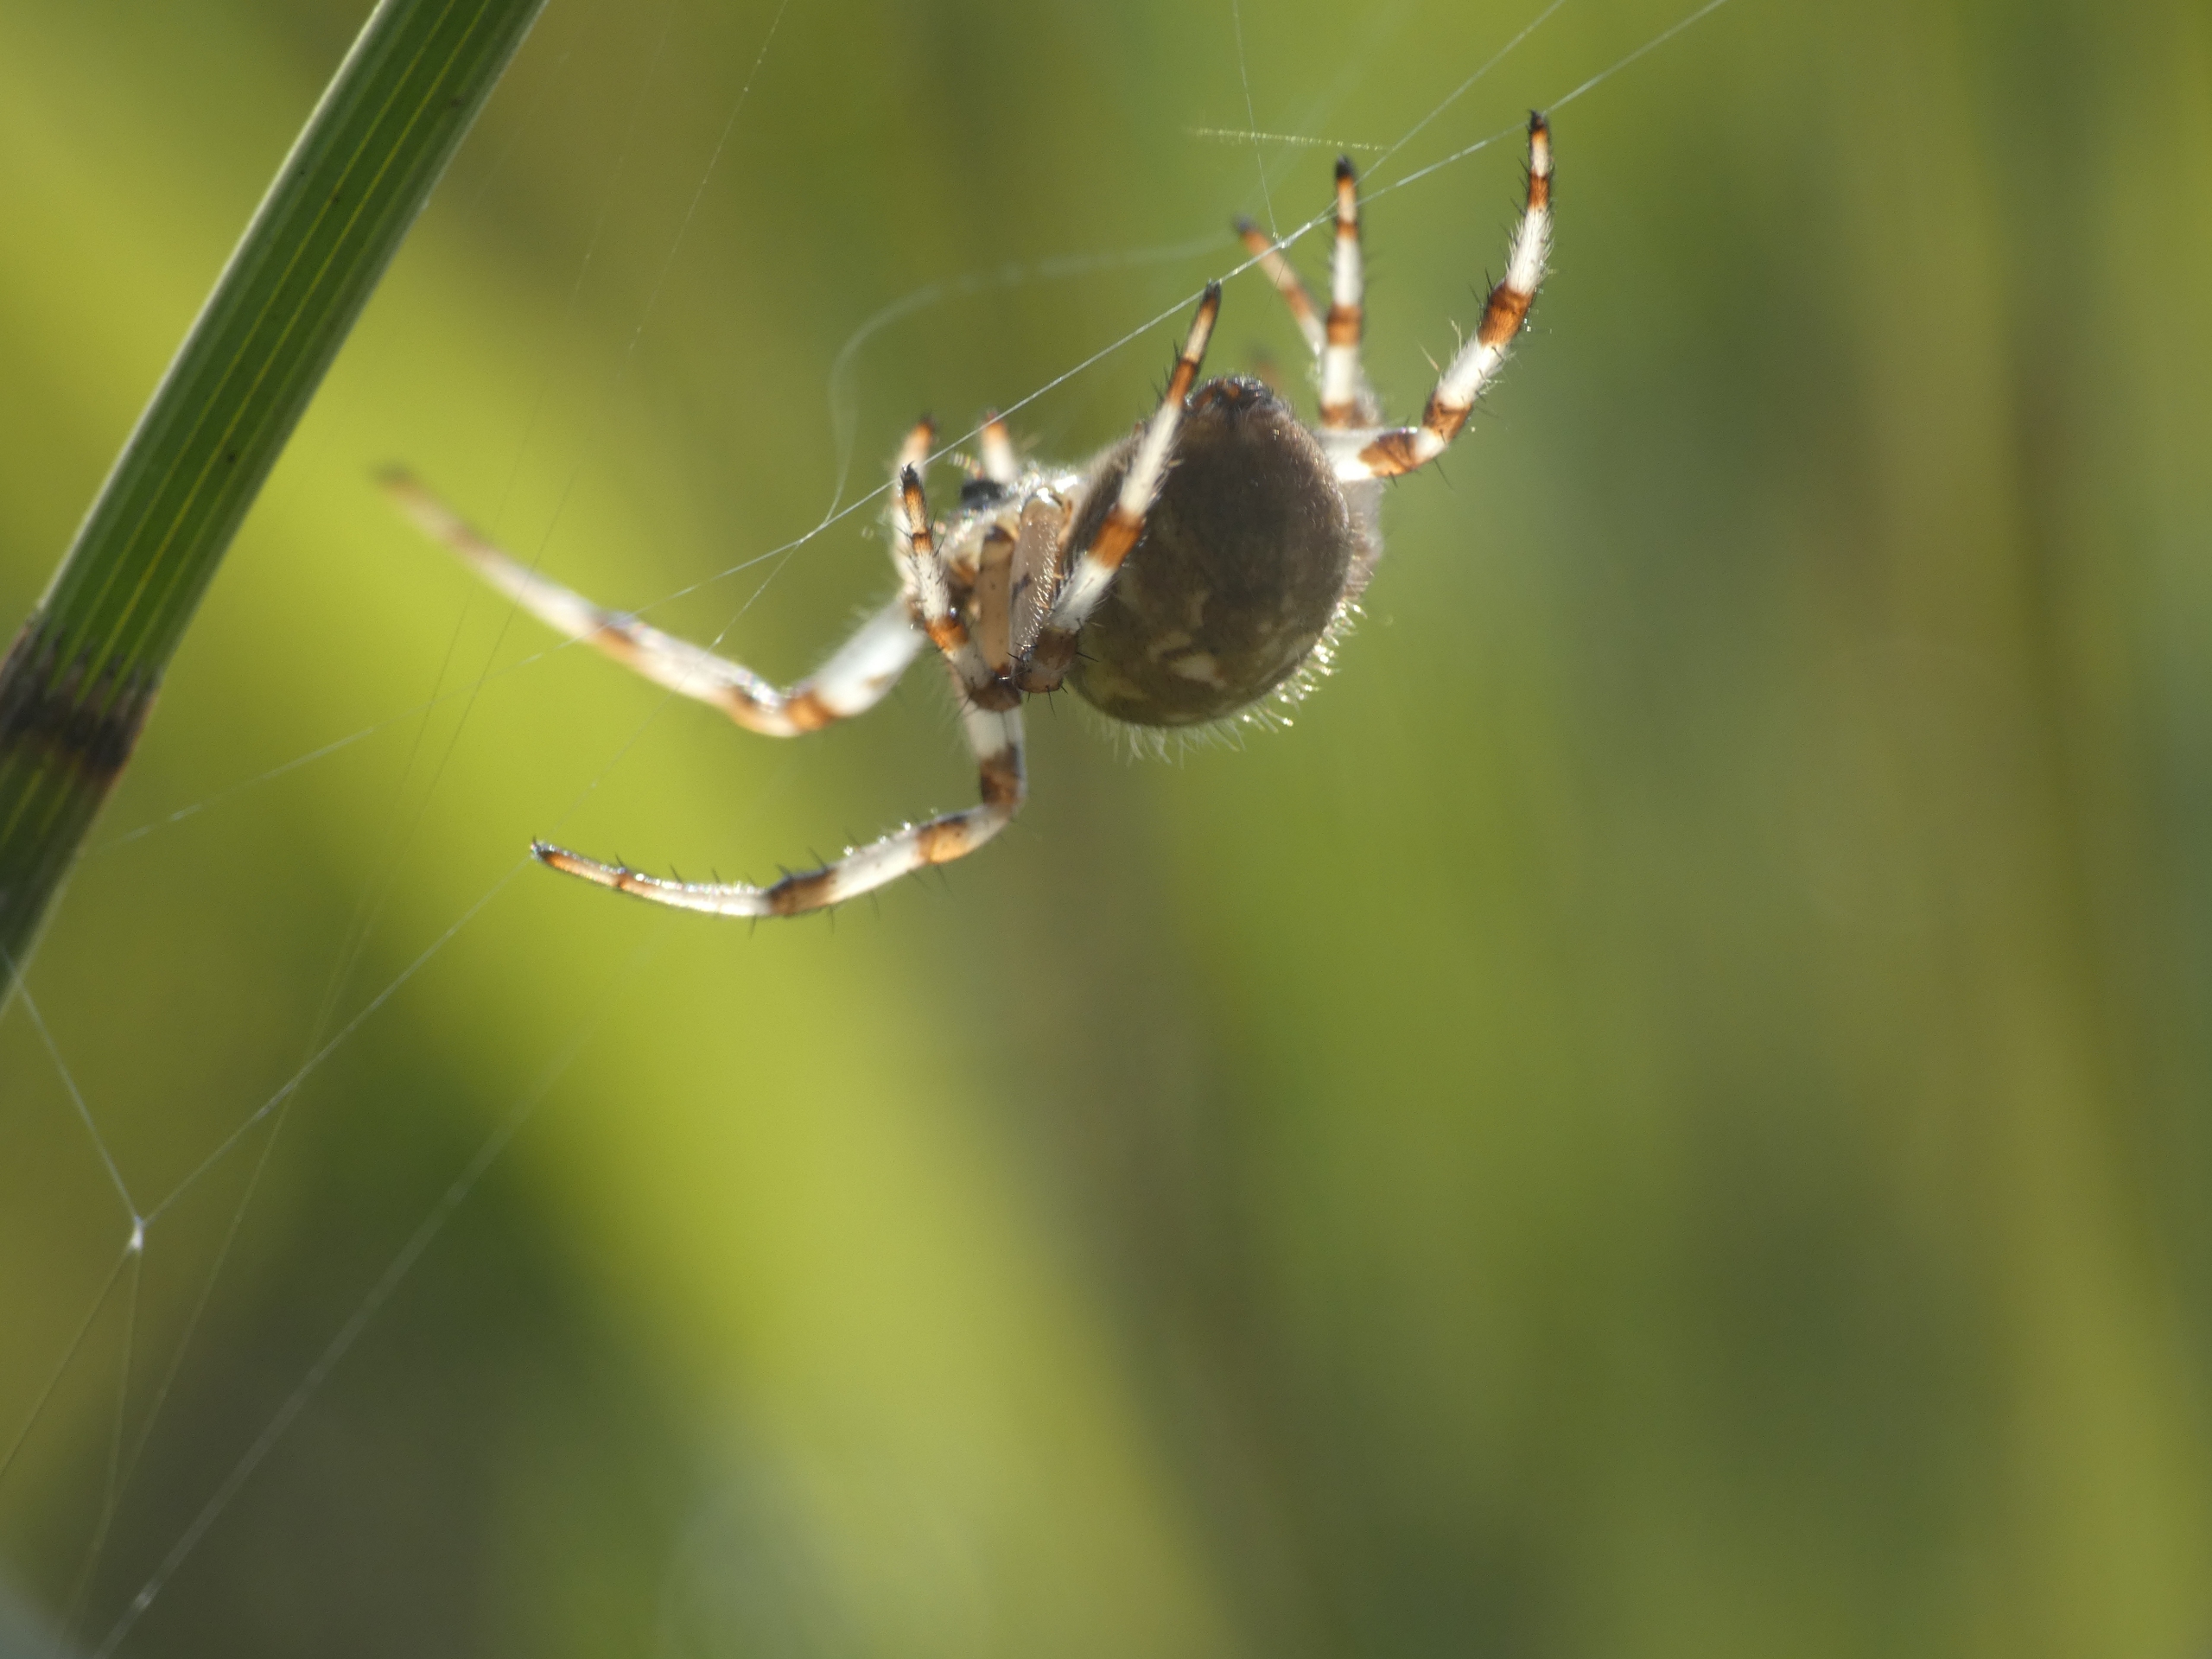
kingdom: Animalia
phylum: Arthropoda
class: Arachnida
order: Araneae
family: Araneidae
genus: Araneus
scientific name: Araneus quadratus
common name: Kvadratedderkop
